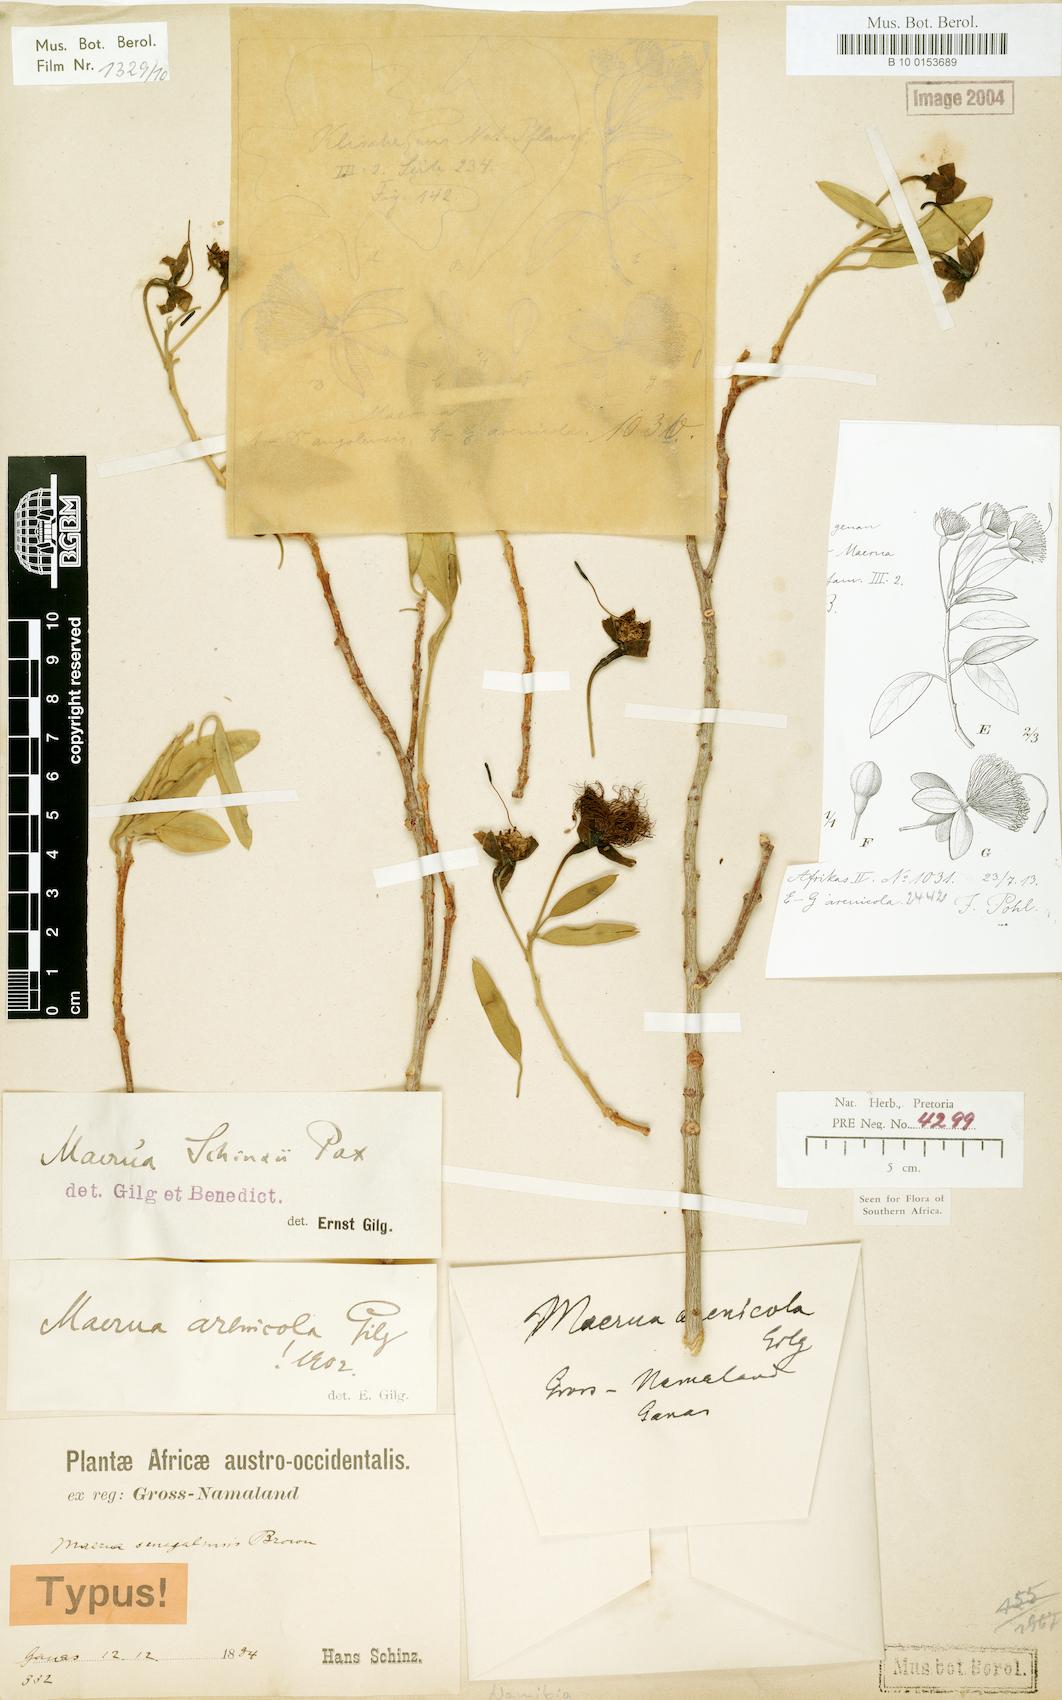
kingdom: Plantae
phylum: Tracheophyta
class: Magnoliopsida
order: Brassicales
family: Capparaceae
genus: Maerua
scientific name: Maerua schinzii
